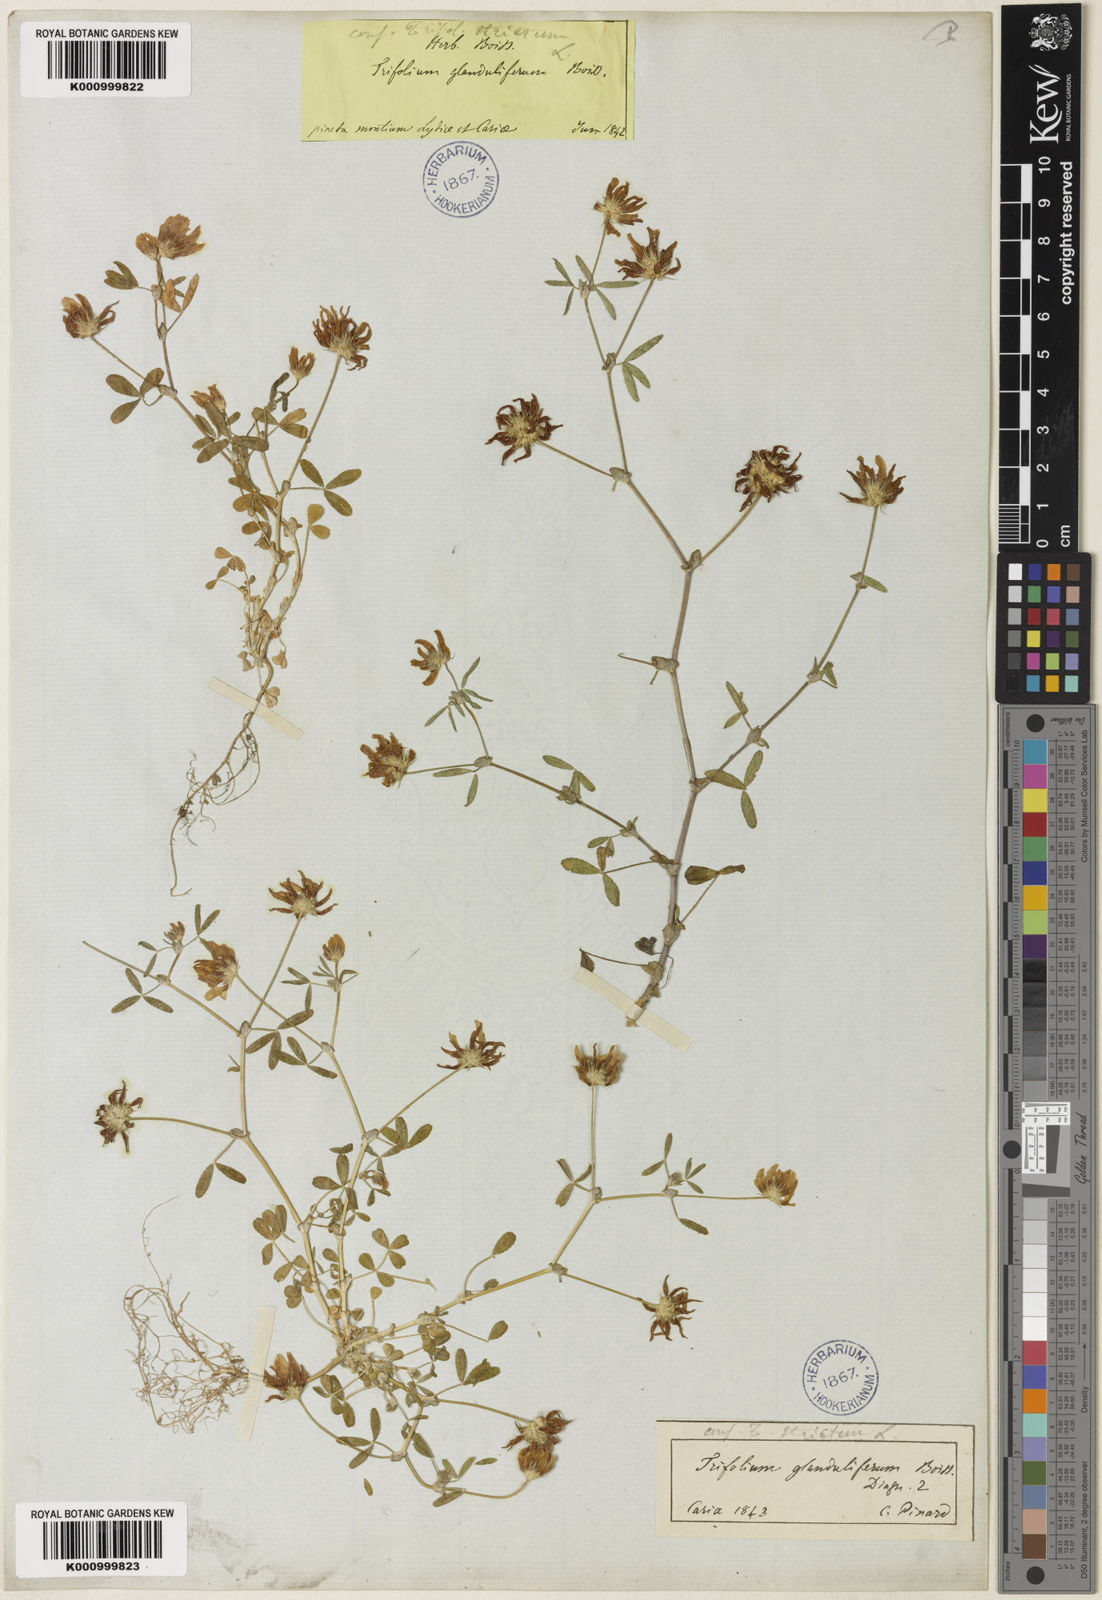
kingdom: Plantae
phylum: Tracheophyta
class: Magnoliopsida
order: Fabales
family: Fabaceae
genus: Trifolium
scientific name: Trifolium glanduliferum
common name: Glandular clover
